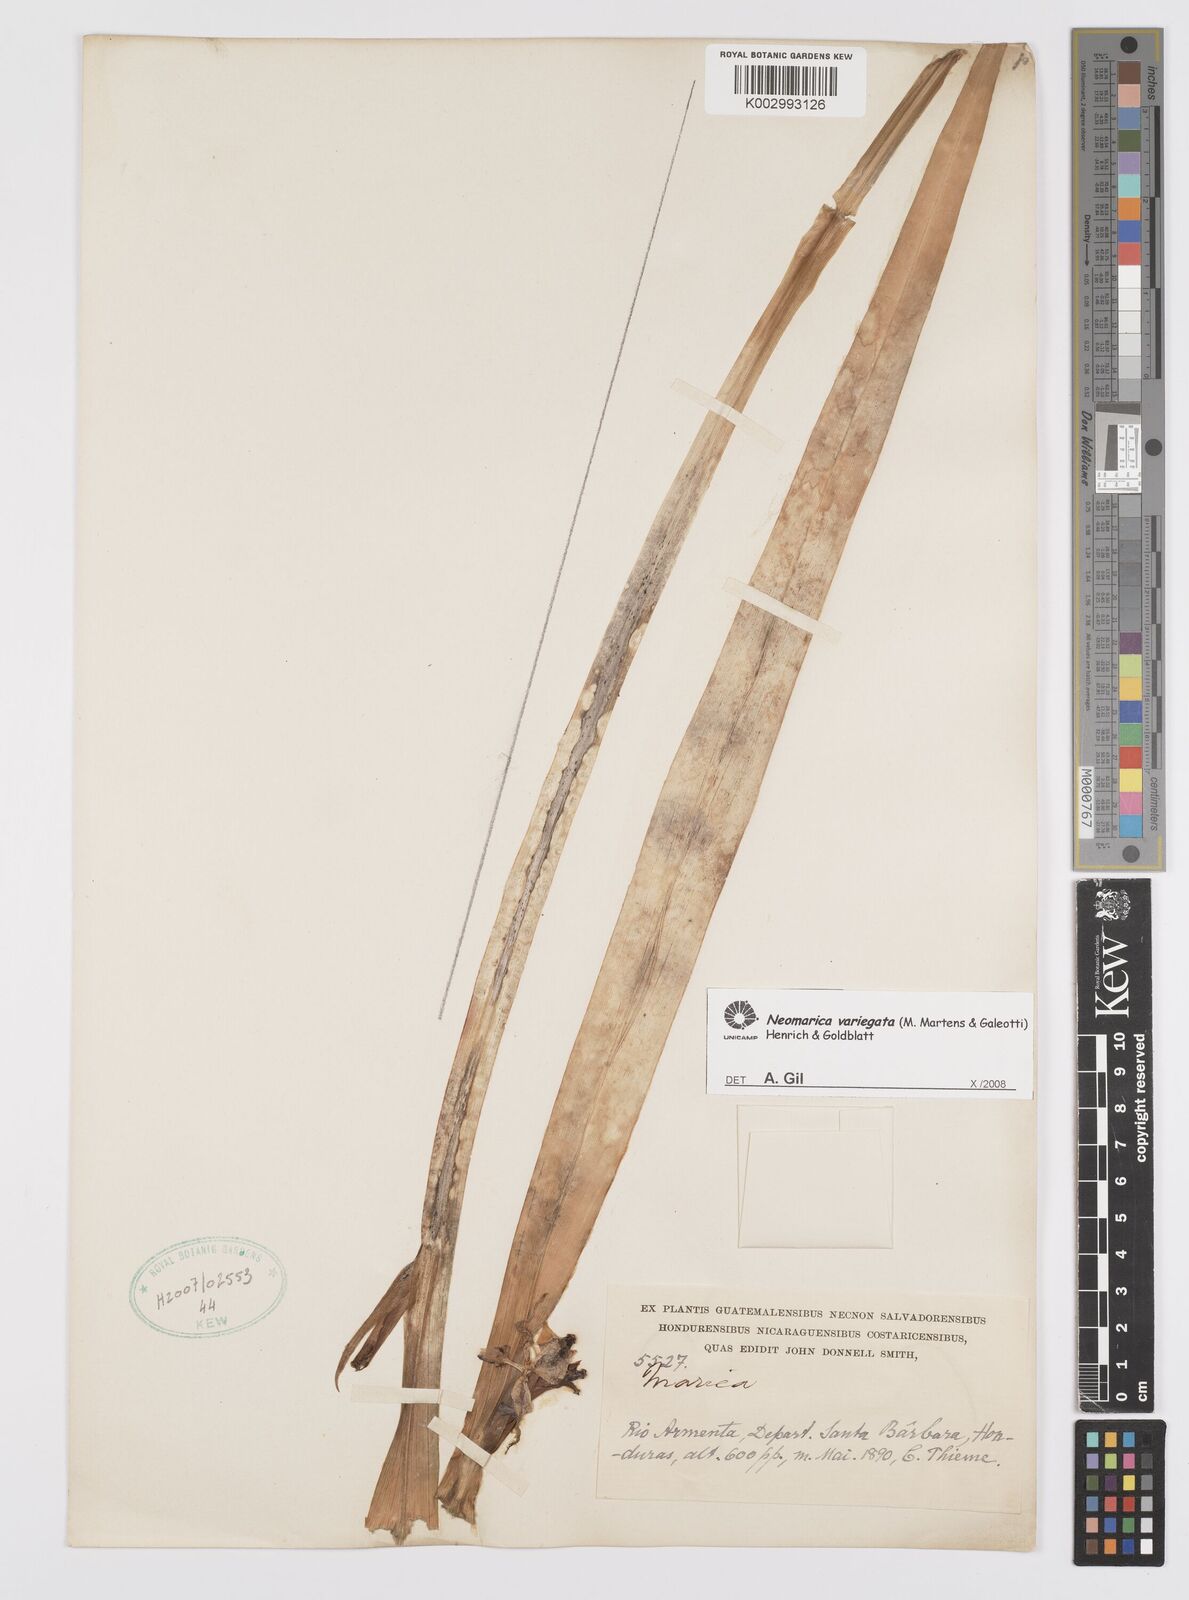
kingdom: Plantae
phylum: Tracheophyta
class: Liliopsida
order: Asparagales
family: Iridaceae
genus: Trimezia
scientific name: Trimezia variegata
